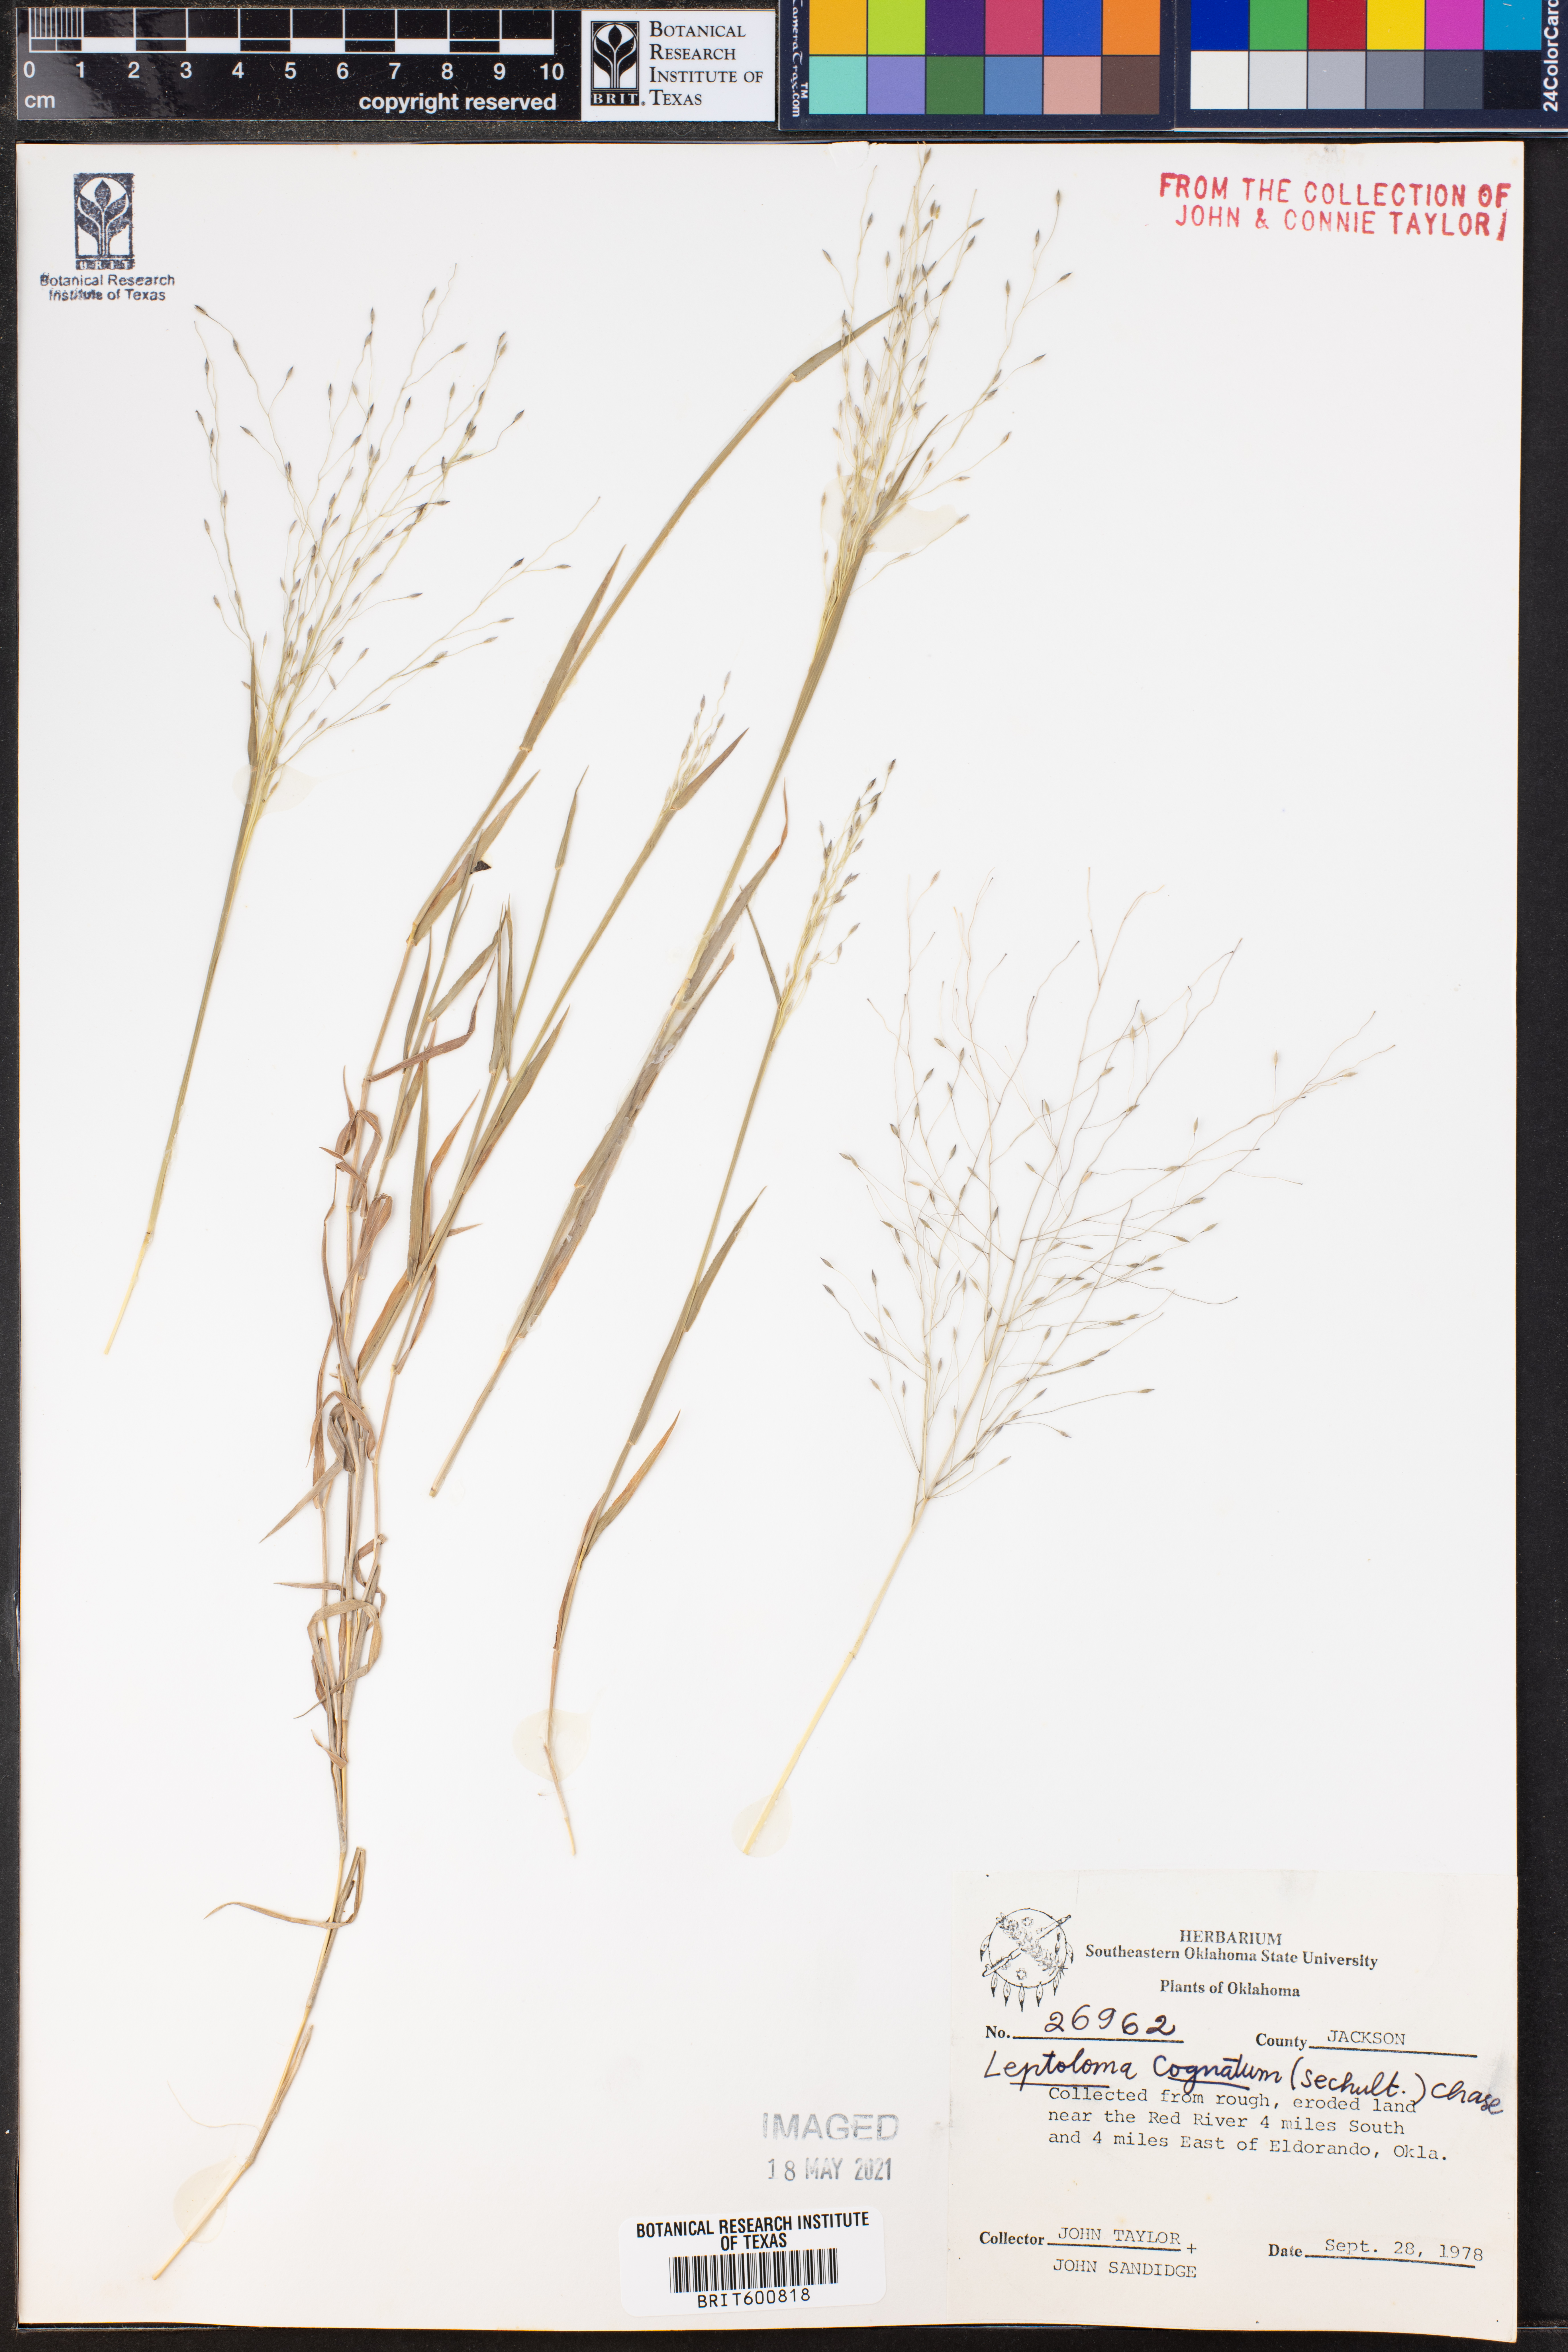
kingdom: Plantae
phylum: Tracheophyta
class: Liliopsida
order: Poales
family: Poaceae
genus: Digitaria
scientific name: Digitaria cognata
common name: Fall witchgrass
